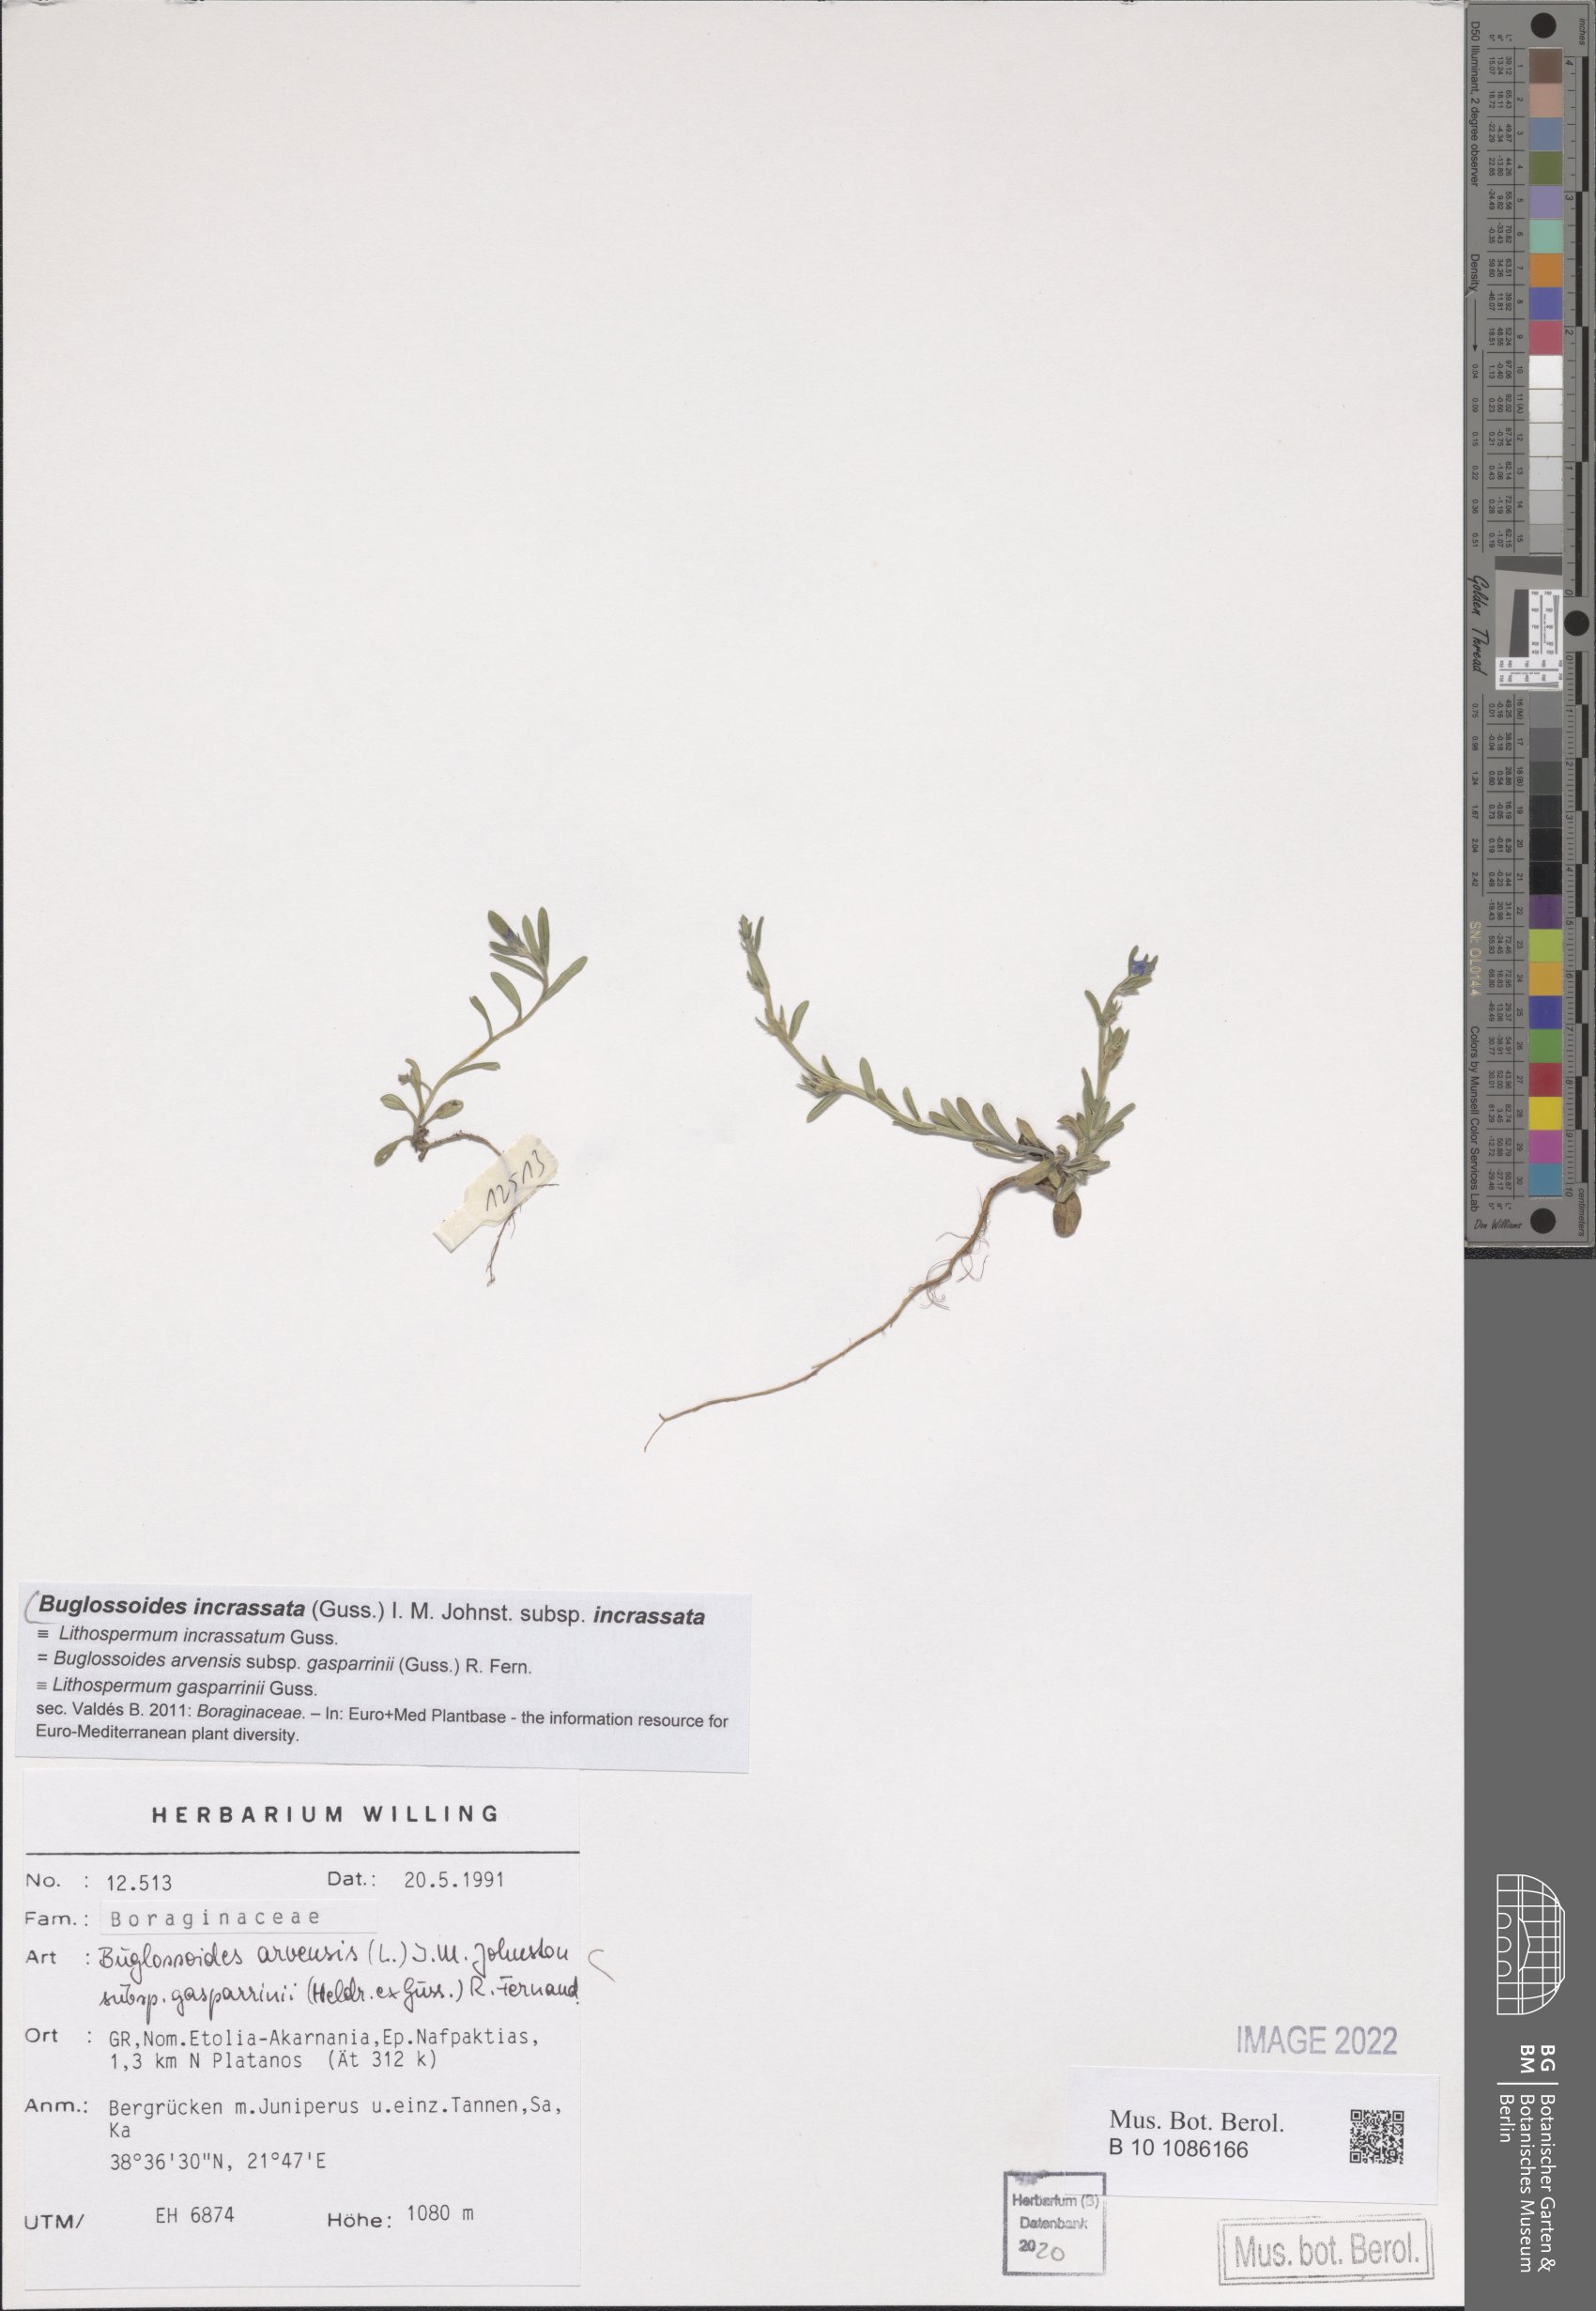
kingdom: Plantae
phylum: Tracheophyta
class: Magnoliopsida
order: Boraginales
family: Boraginaceae
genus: Buglossoides
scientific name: Buglossoides incrassata
